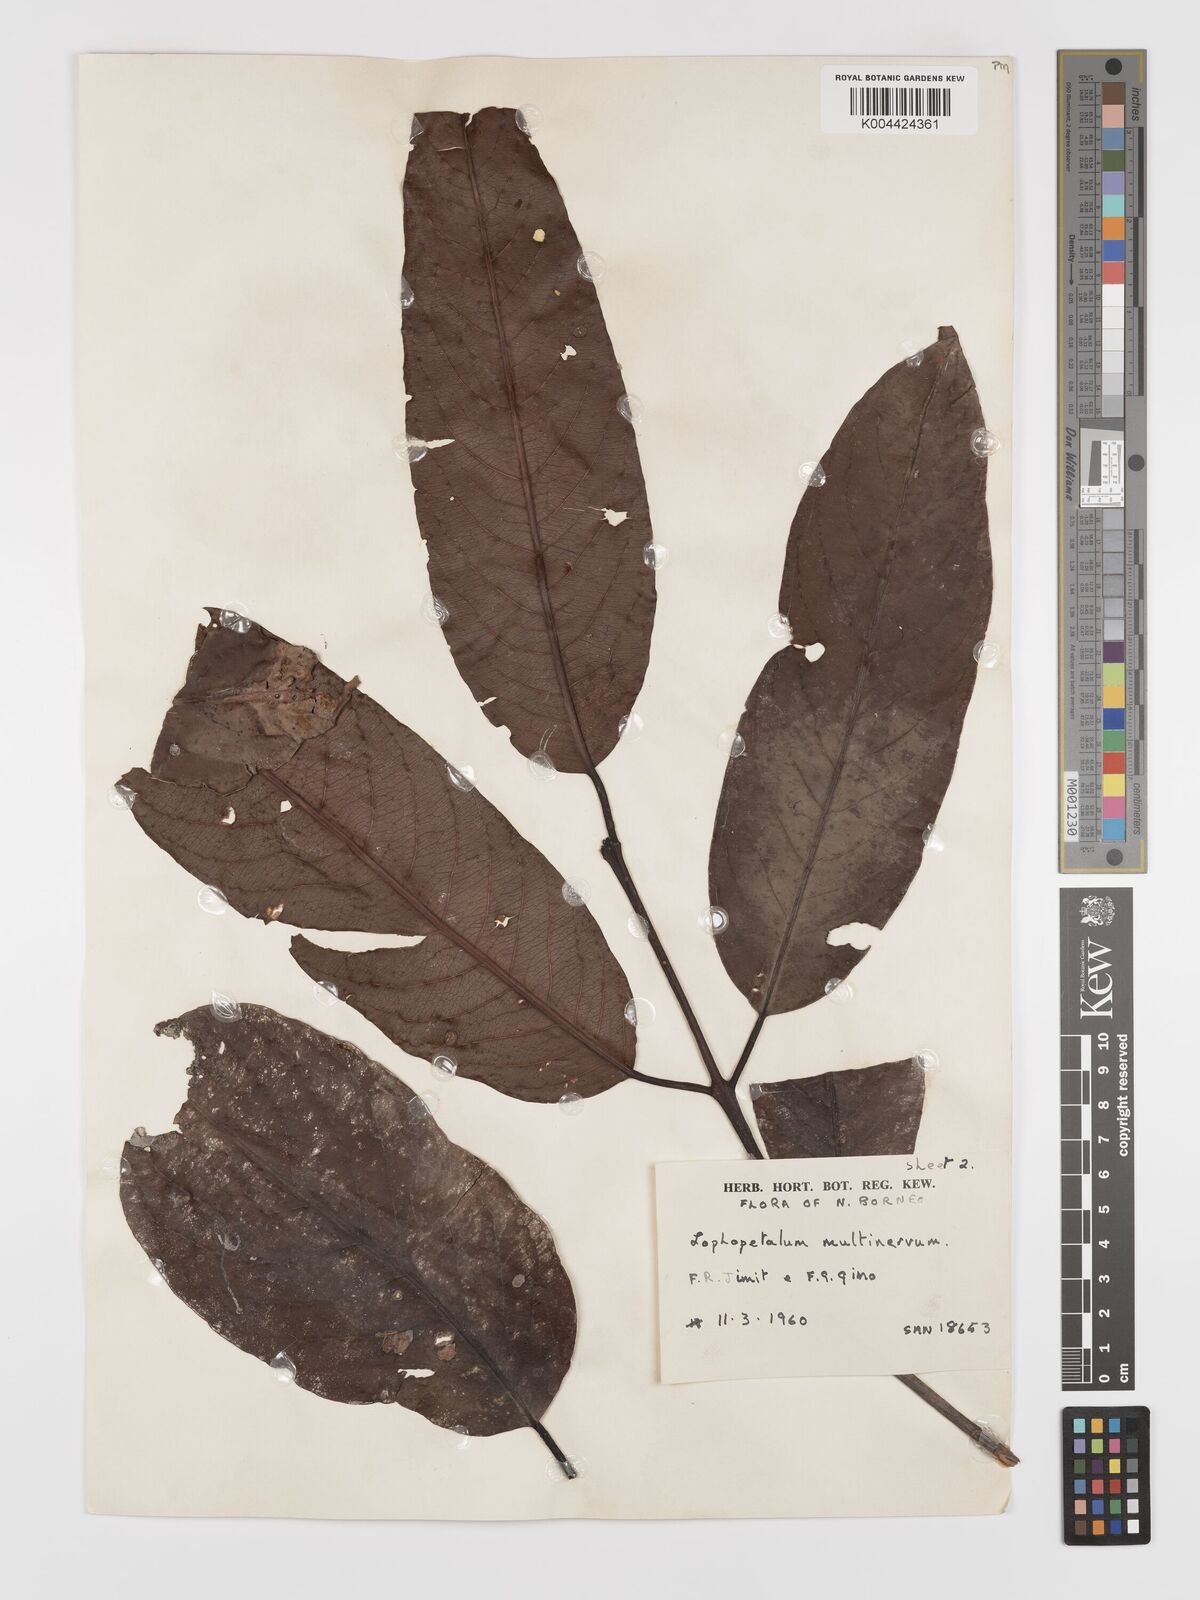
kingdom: Plantae
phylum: Tracheophyta
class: Magnoliopsida
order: Celastrales
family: Celastraceae
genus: Lophopetalum
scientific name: Lophopetalum multinervium
